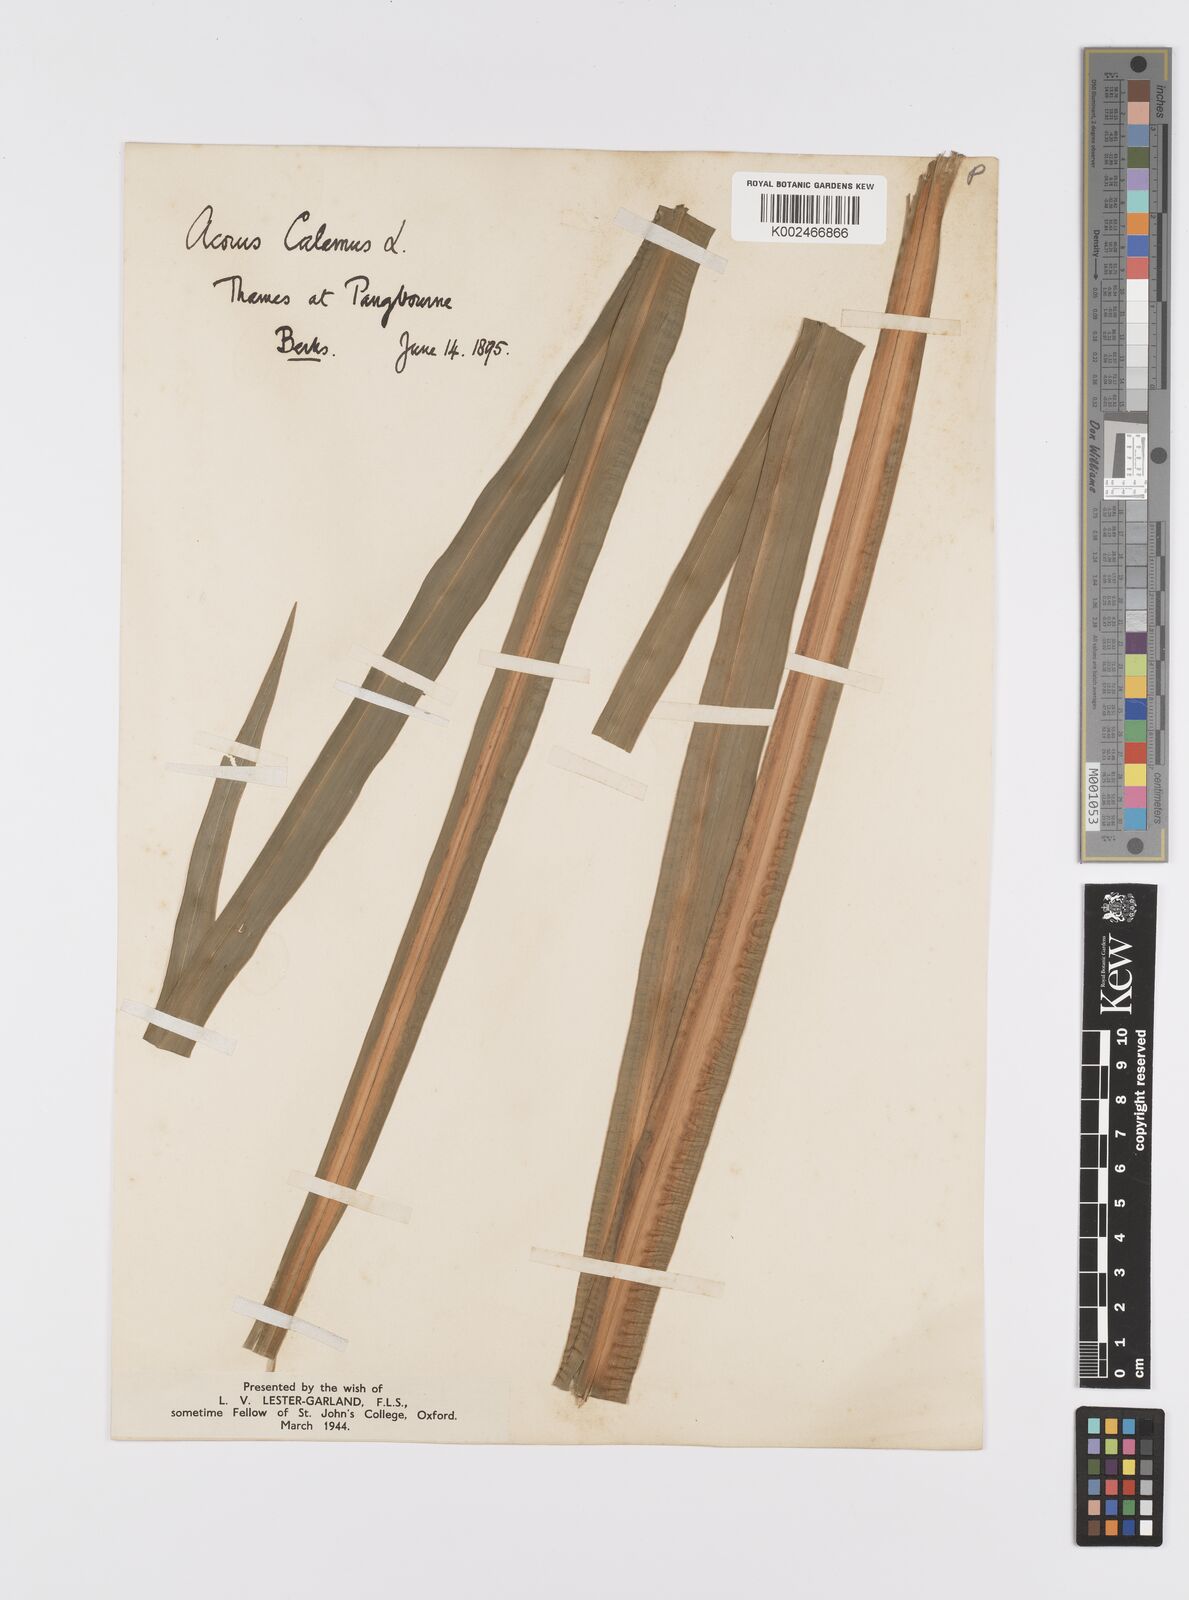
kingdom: Plantae
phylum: Tracheophyta
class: Liliopsida
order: Acorales
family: Acoraceae
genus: Acorus
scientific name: Acorus calamus
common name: Sweet-flag
